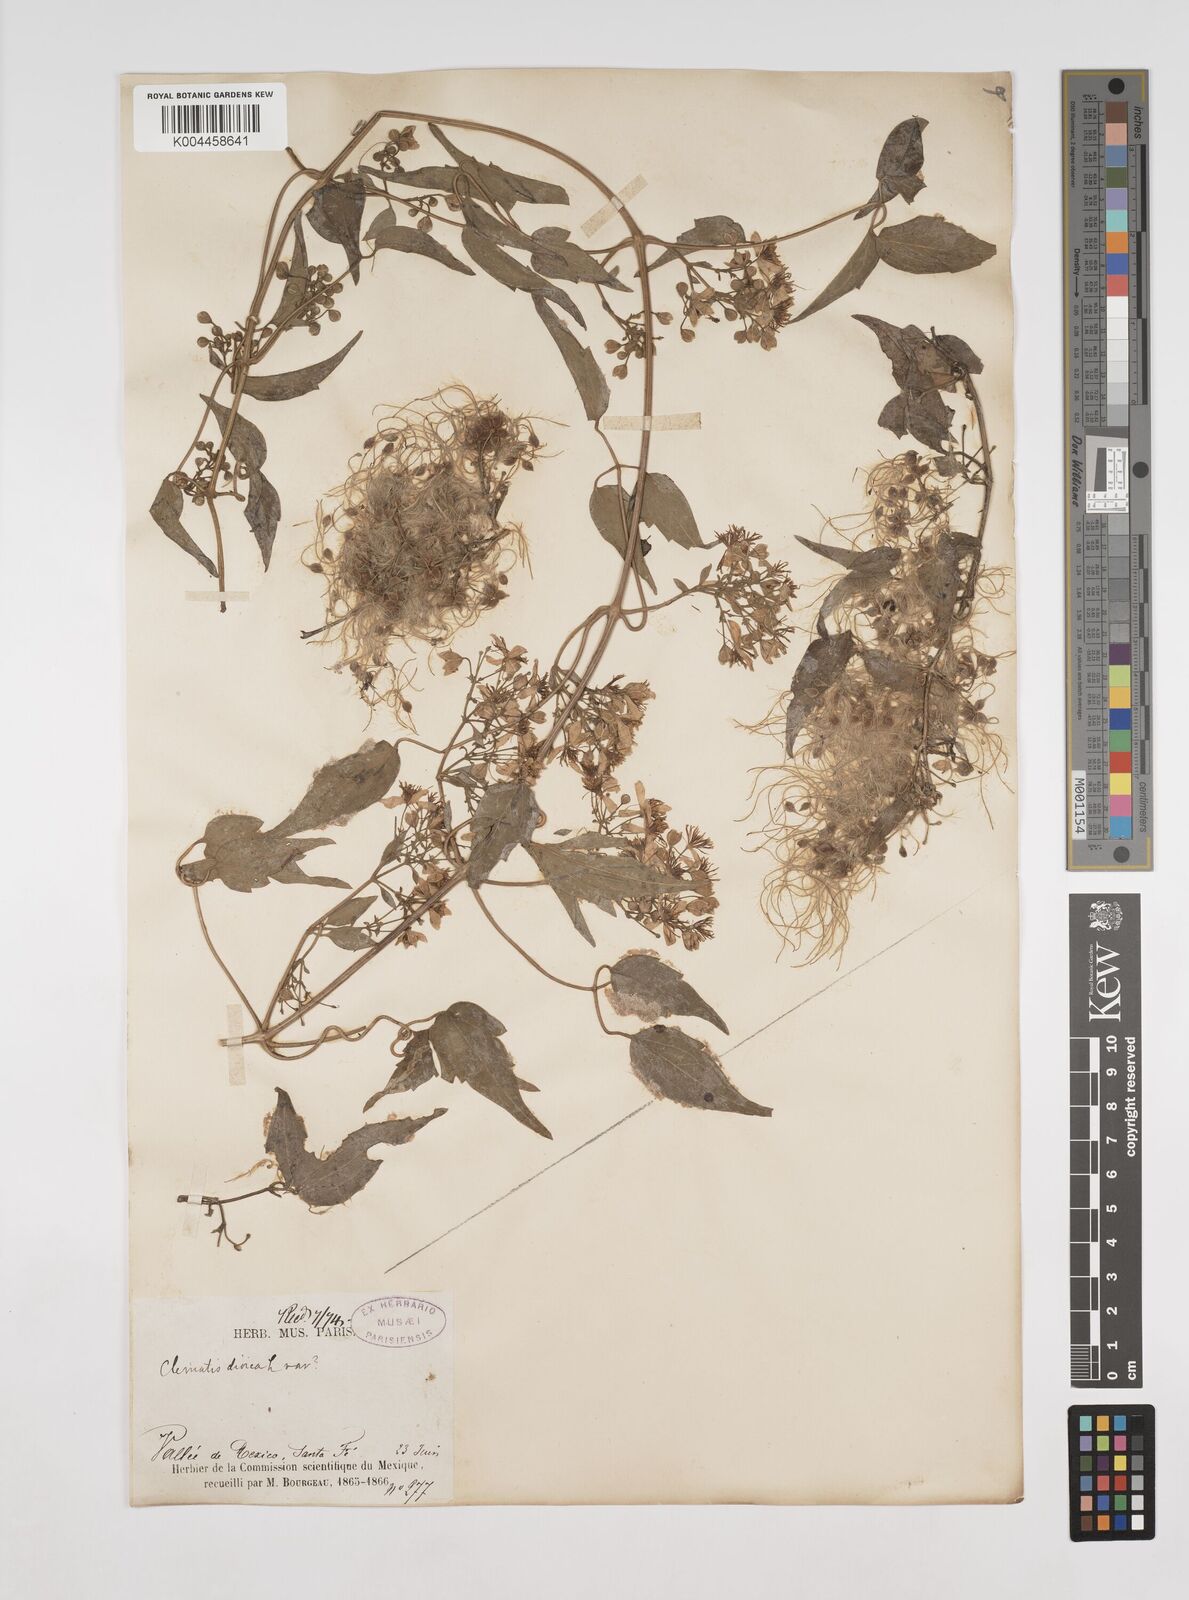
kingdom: Plantae
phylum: Tracheophyta
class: Magnoliopsida
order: Ranunculales
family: Ranunculaceae
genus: Clematis
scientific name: Clematis dioica
